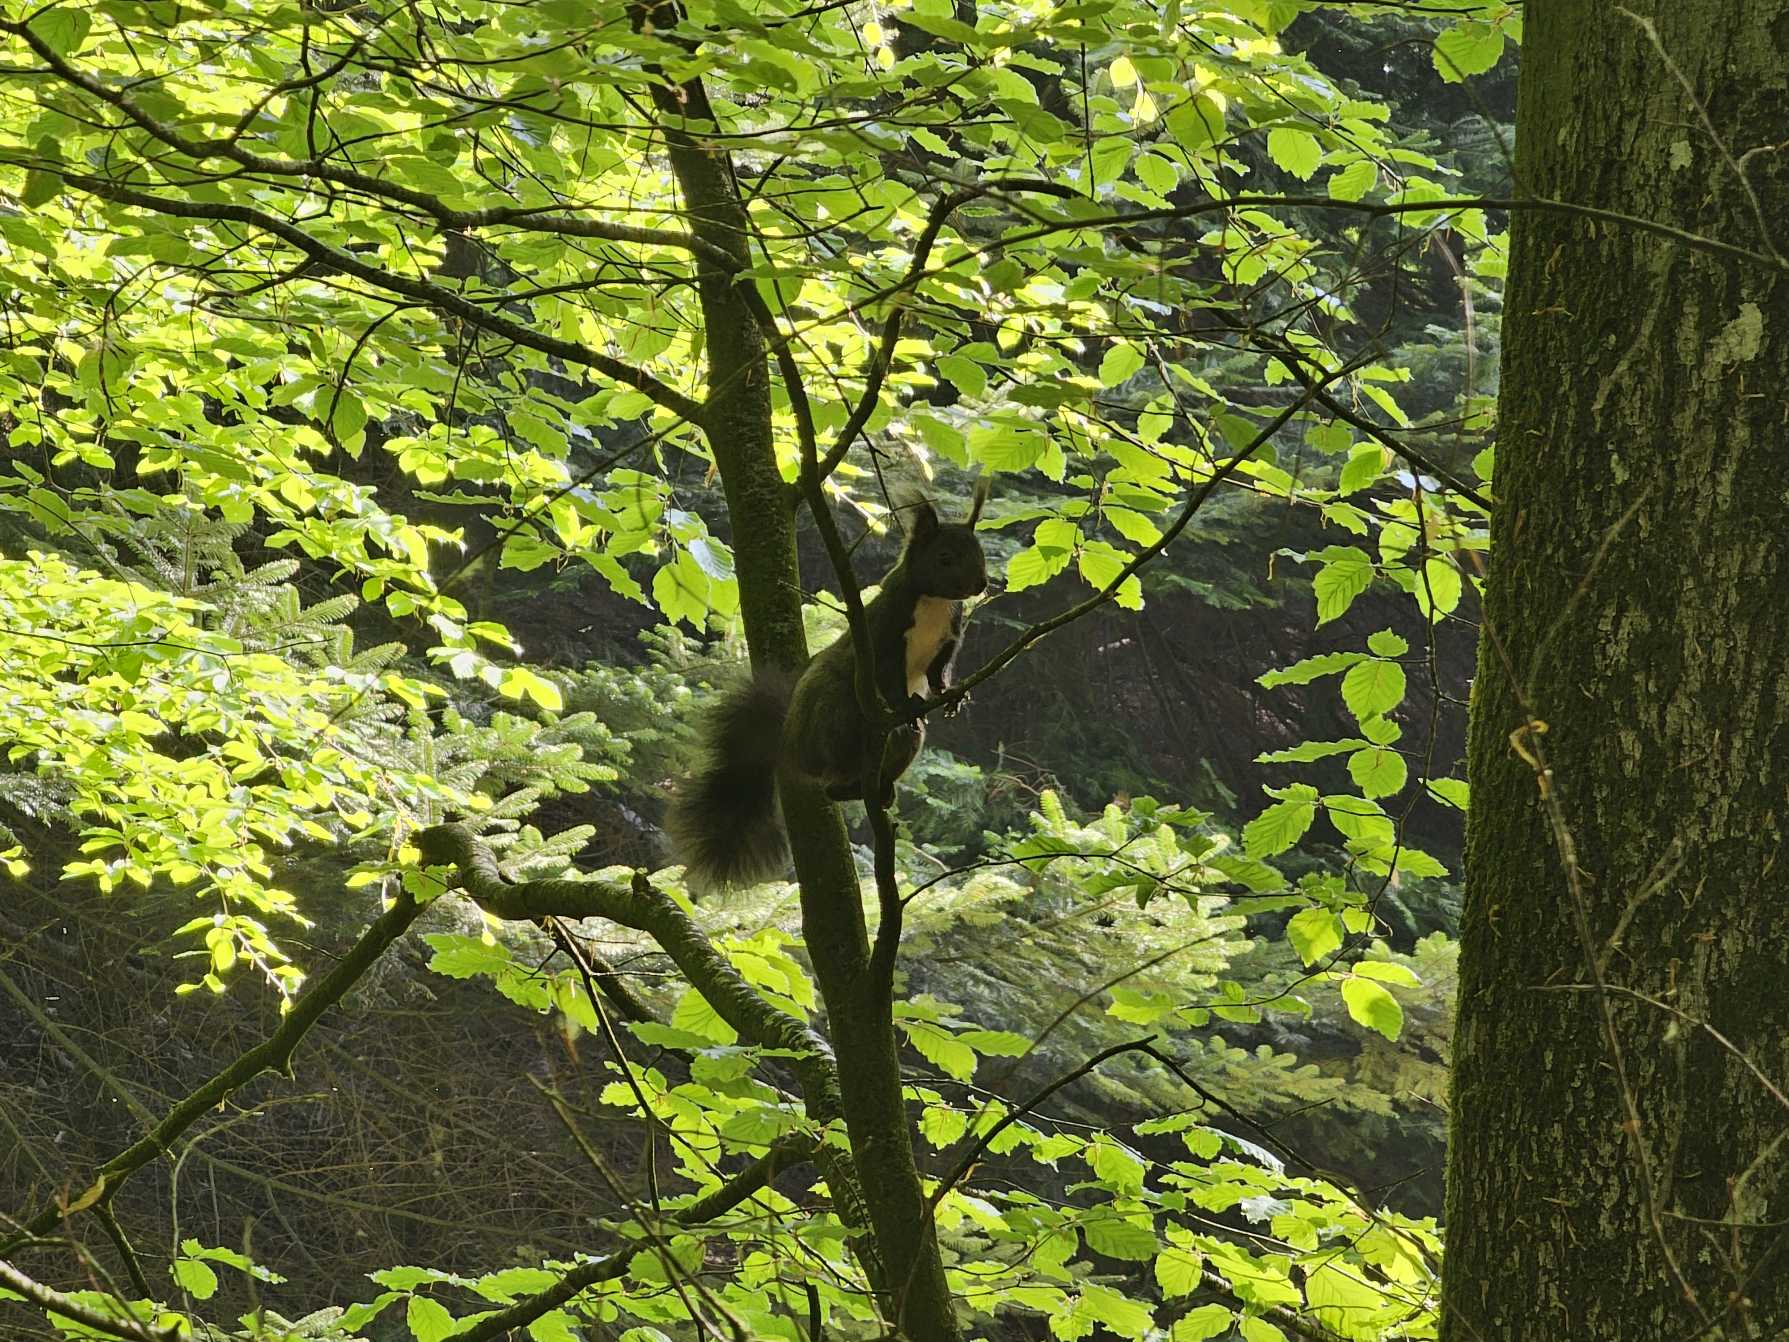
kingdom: Animalia
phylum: Chordata
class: Mammalia
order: Rodentia
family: Sciuridae
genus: Sciurus
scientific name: Sciurus vulgaris
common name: Egern
